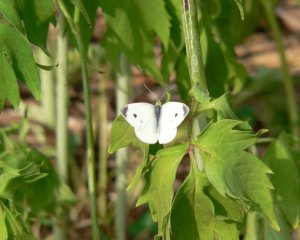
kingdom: Animalia
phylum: Arthropoda
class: Insecta
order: Lepidoptera
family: Pieridae
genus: Pieris
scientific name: Pieris rapae
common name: Cabbage White
